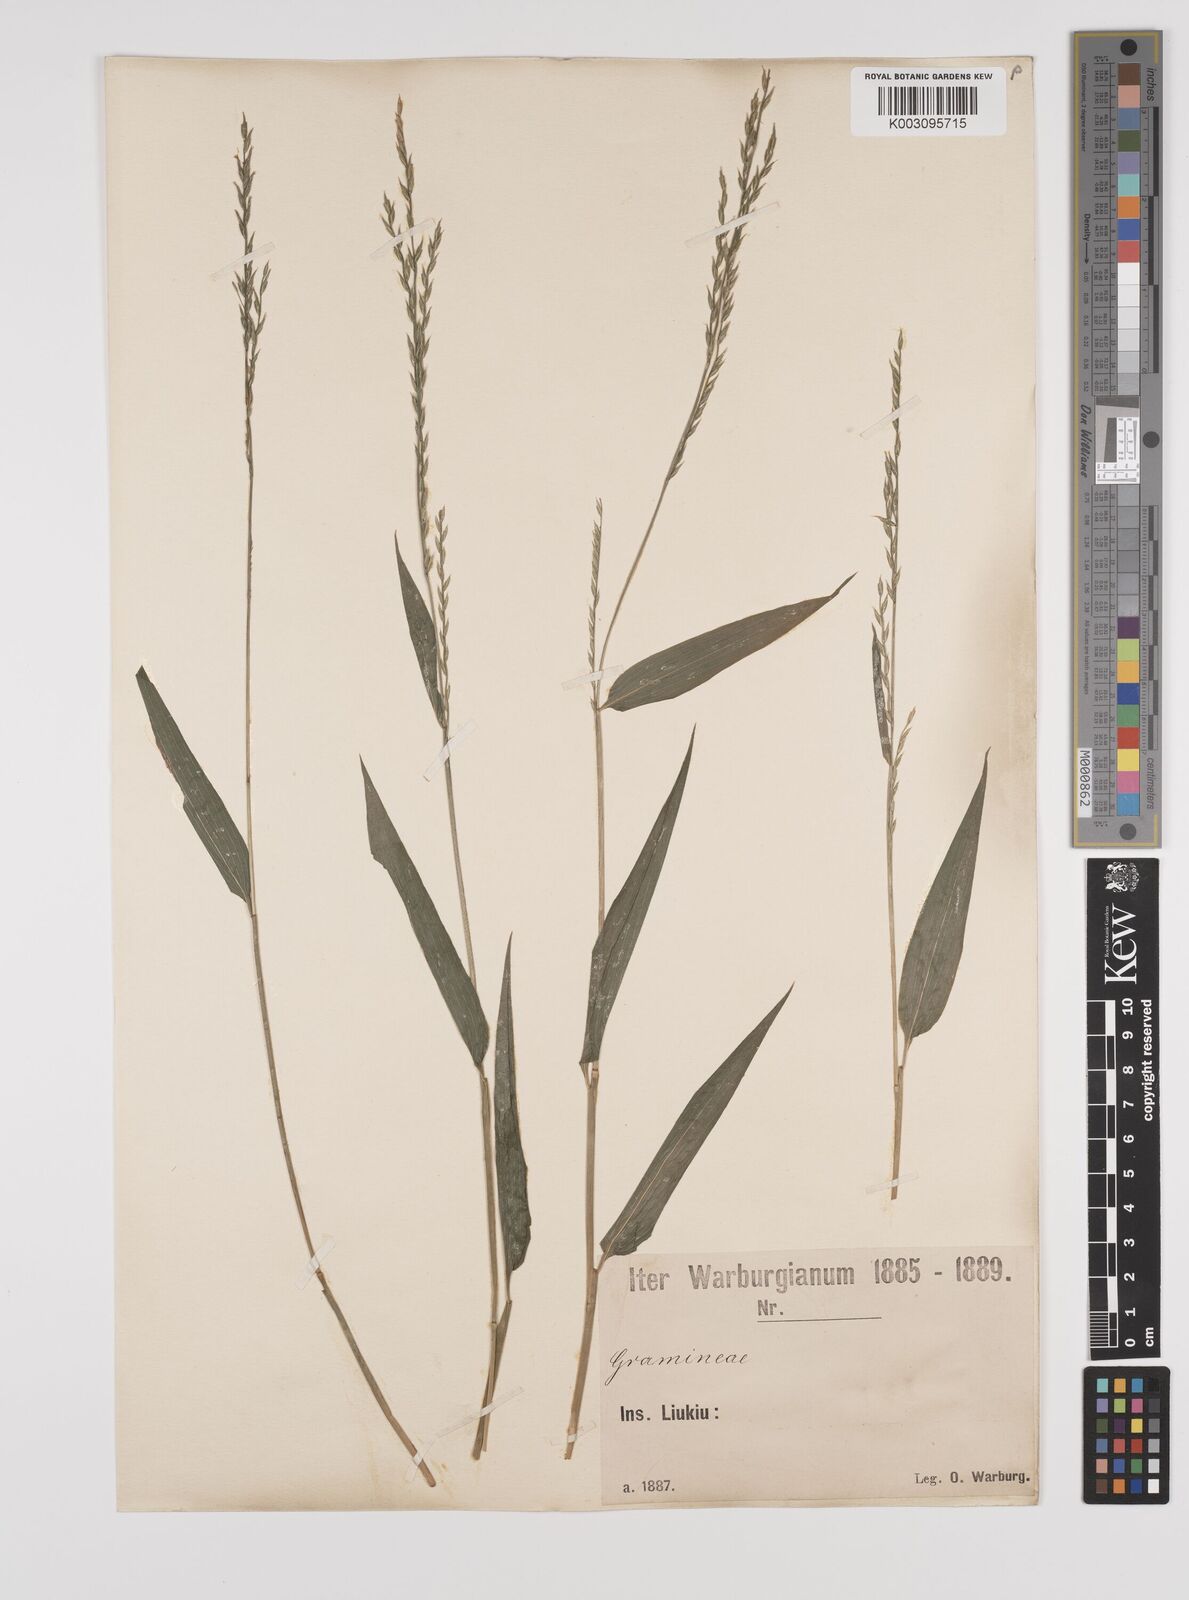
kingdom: Plantae
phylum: Tracheophyta
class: Liliopsida
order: Poales
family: Poaceae
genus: Lophatherum
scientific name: Lophatherum gracile
